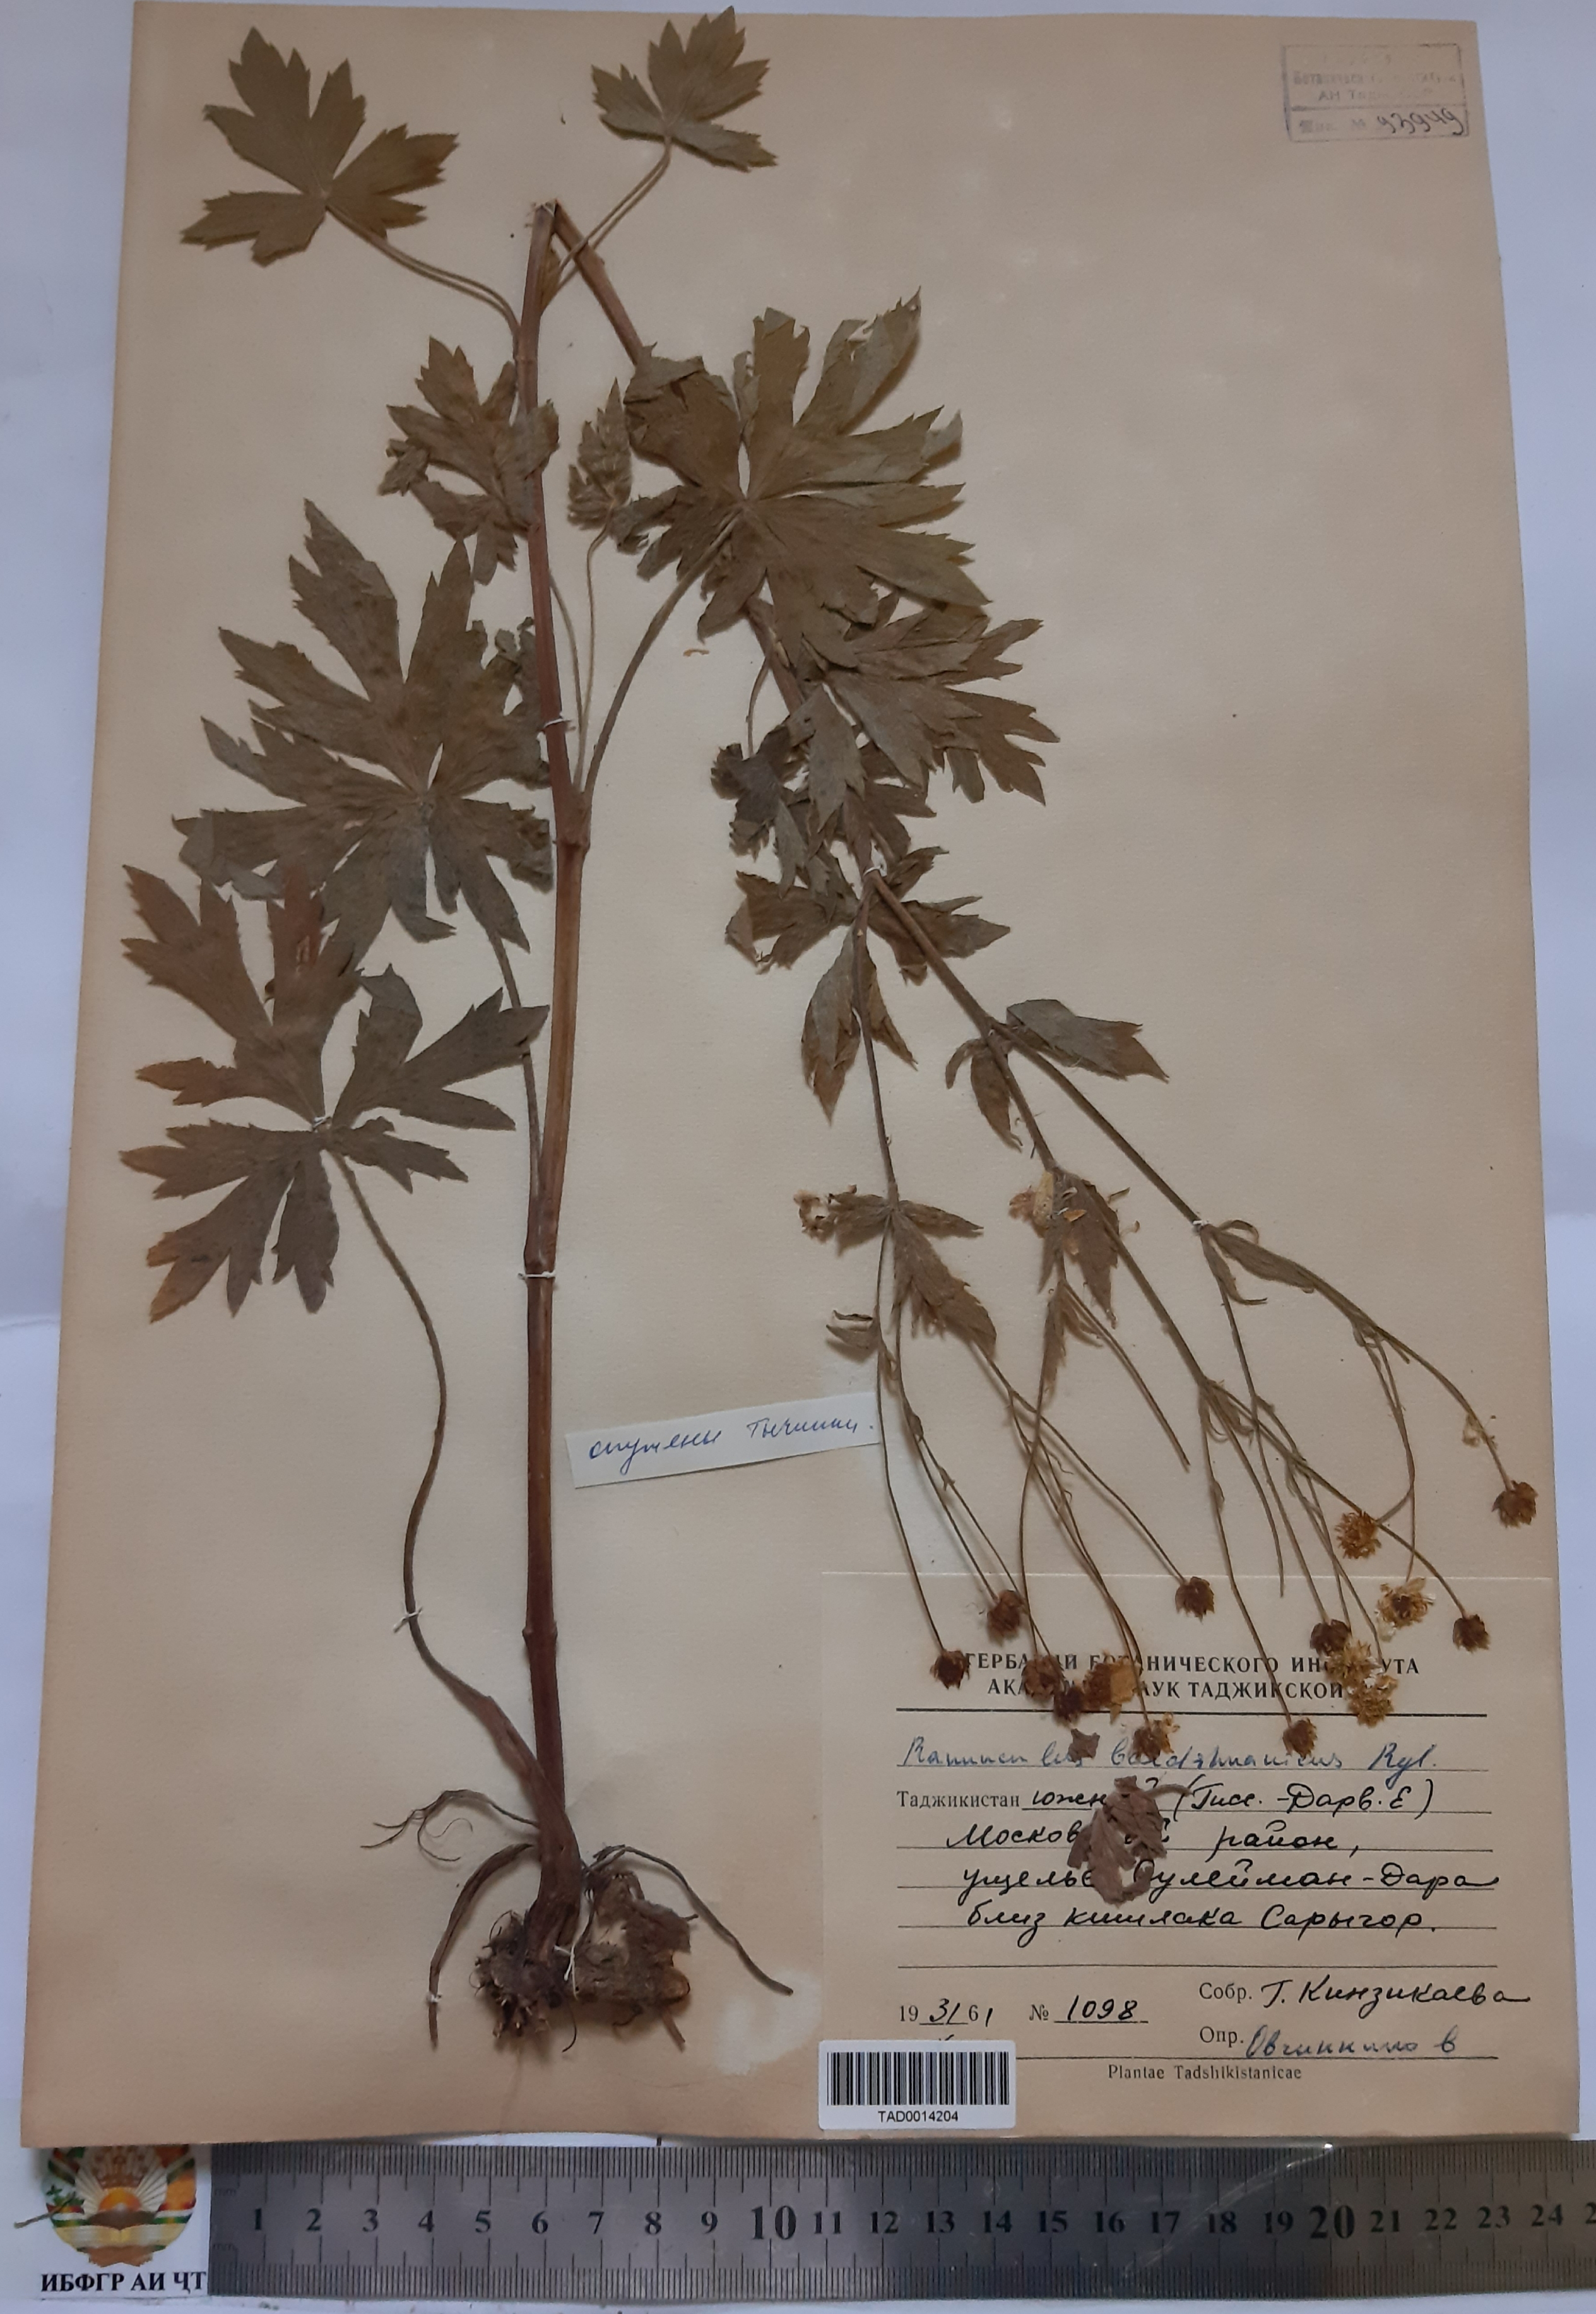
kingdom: Plantae
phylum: Tracheophyta
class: Magnoliopsida
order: Ranunculales
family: Ranunculaceae
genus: Ranunculus
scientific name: Ranunculus baldshuanicus
